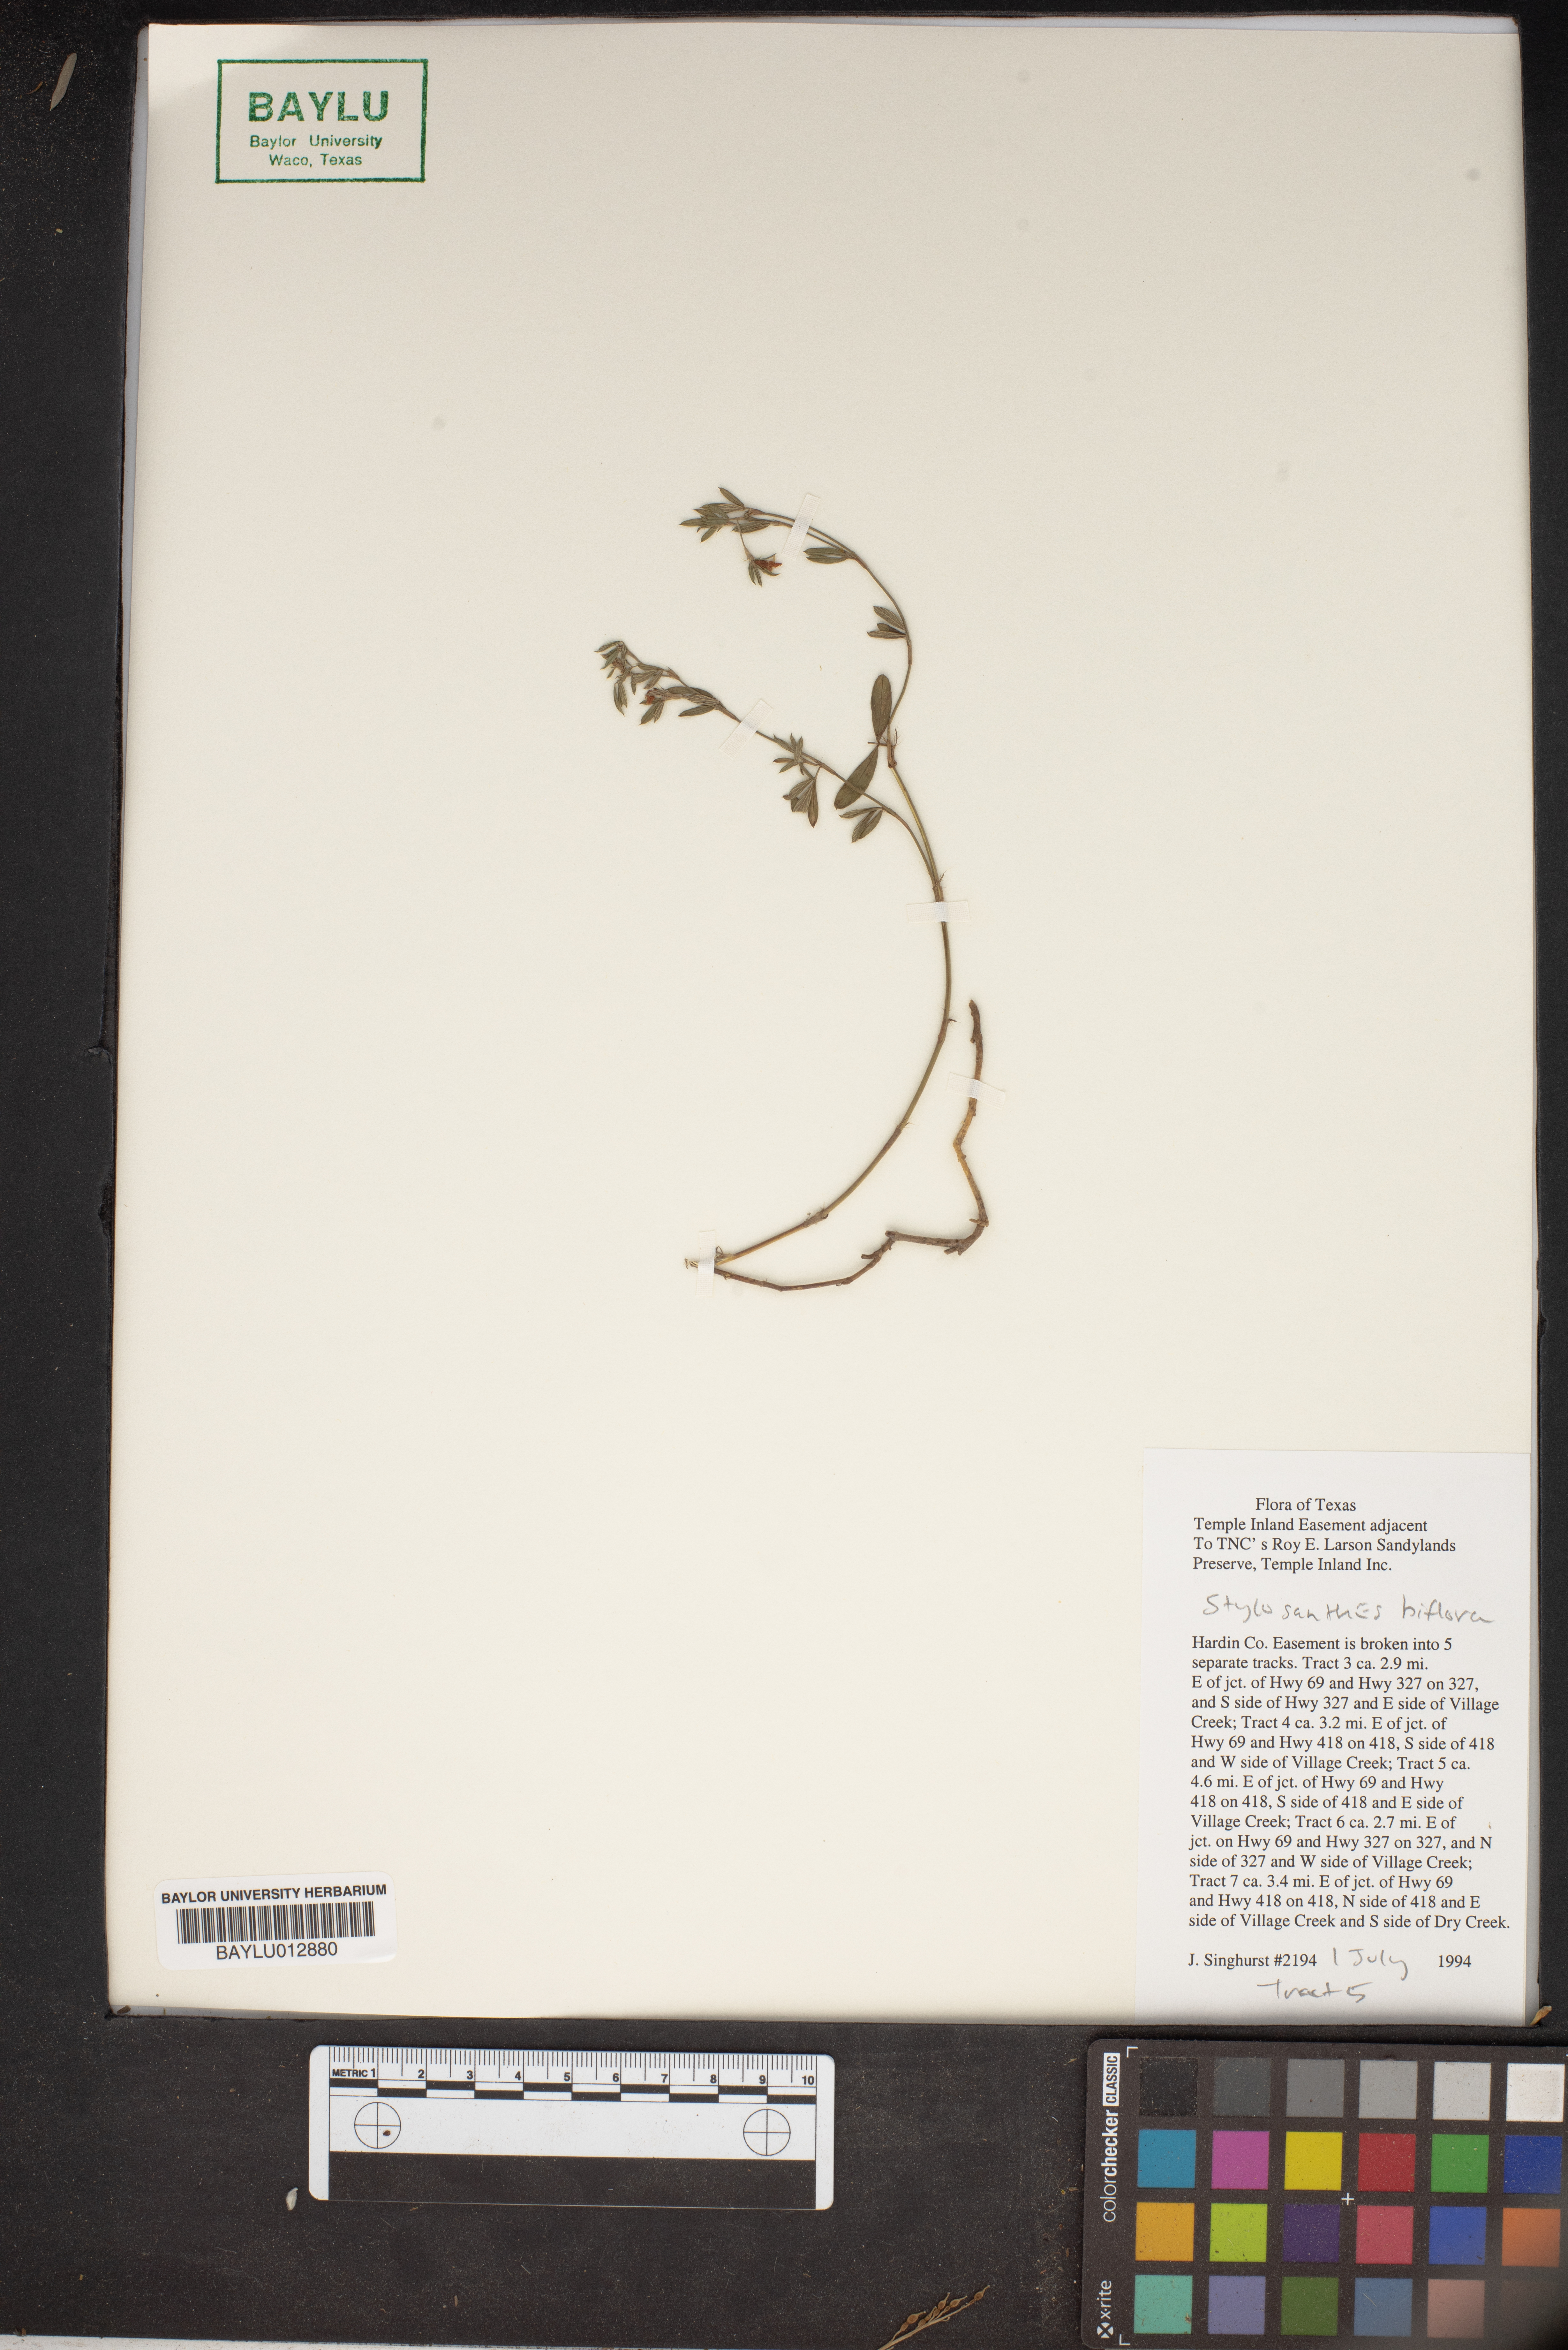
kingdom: Plantae
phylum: Tracheophyta
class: Magnoliopsida
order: Fabales
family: Fabaceae
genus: Stylosanthes
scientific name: Stylosanthes biflora
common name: Two-flower pencil-flower
